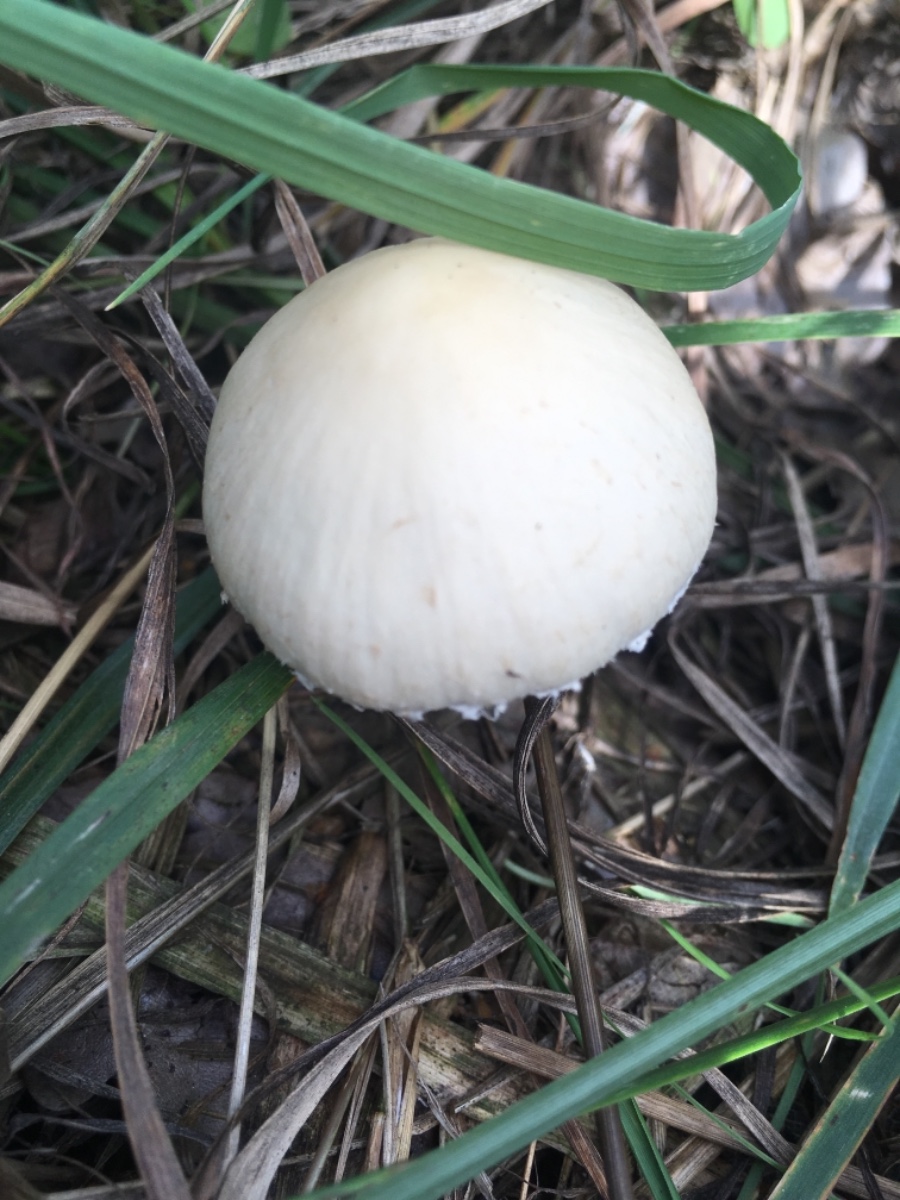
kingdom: Fungi
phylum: Basidiomycota
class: Agaricomycetes
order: Agaricales
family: Agaricaceae
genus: Agaricus
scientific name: Agaricus
